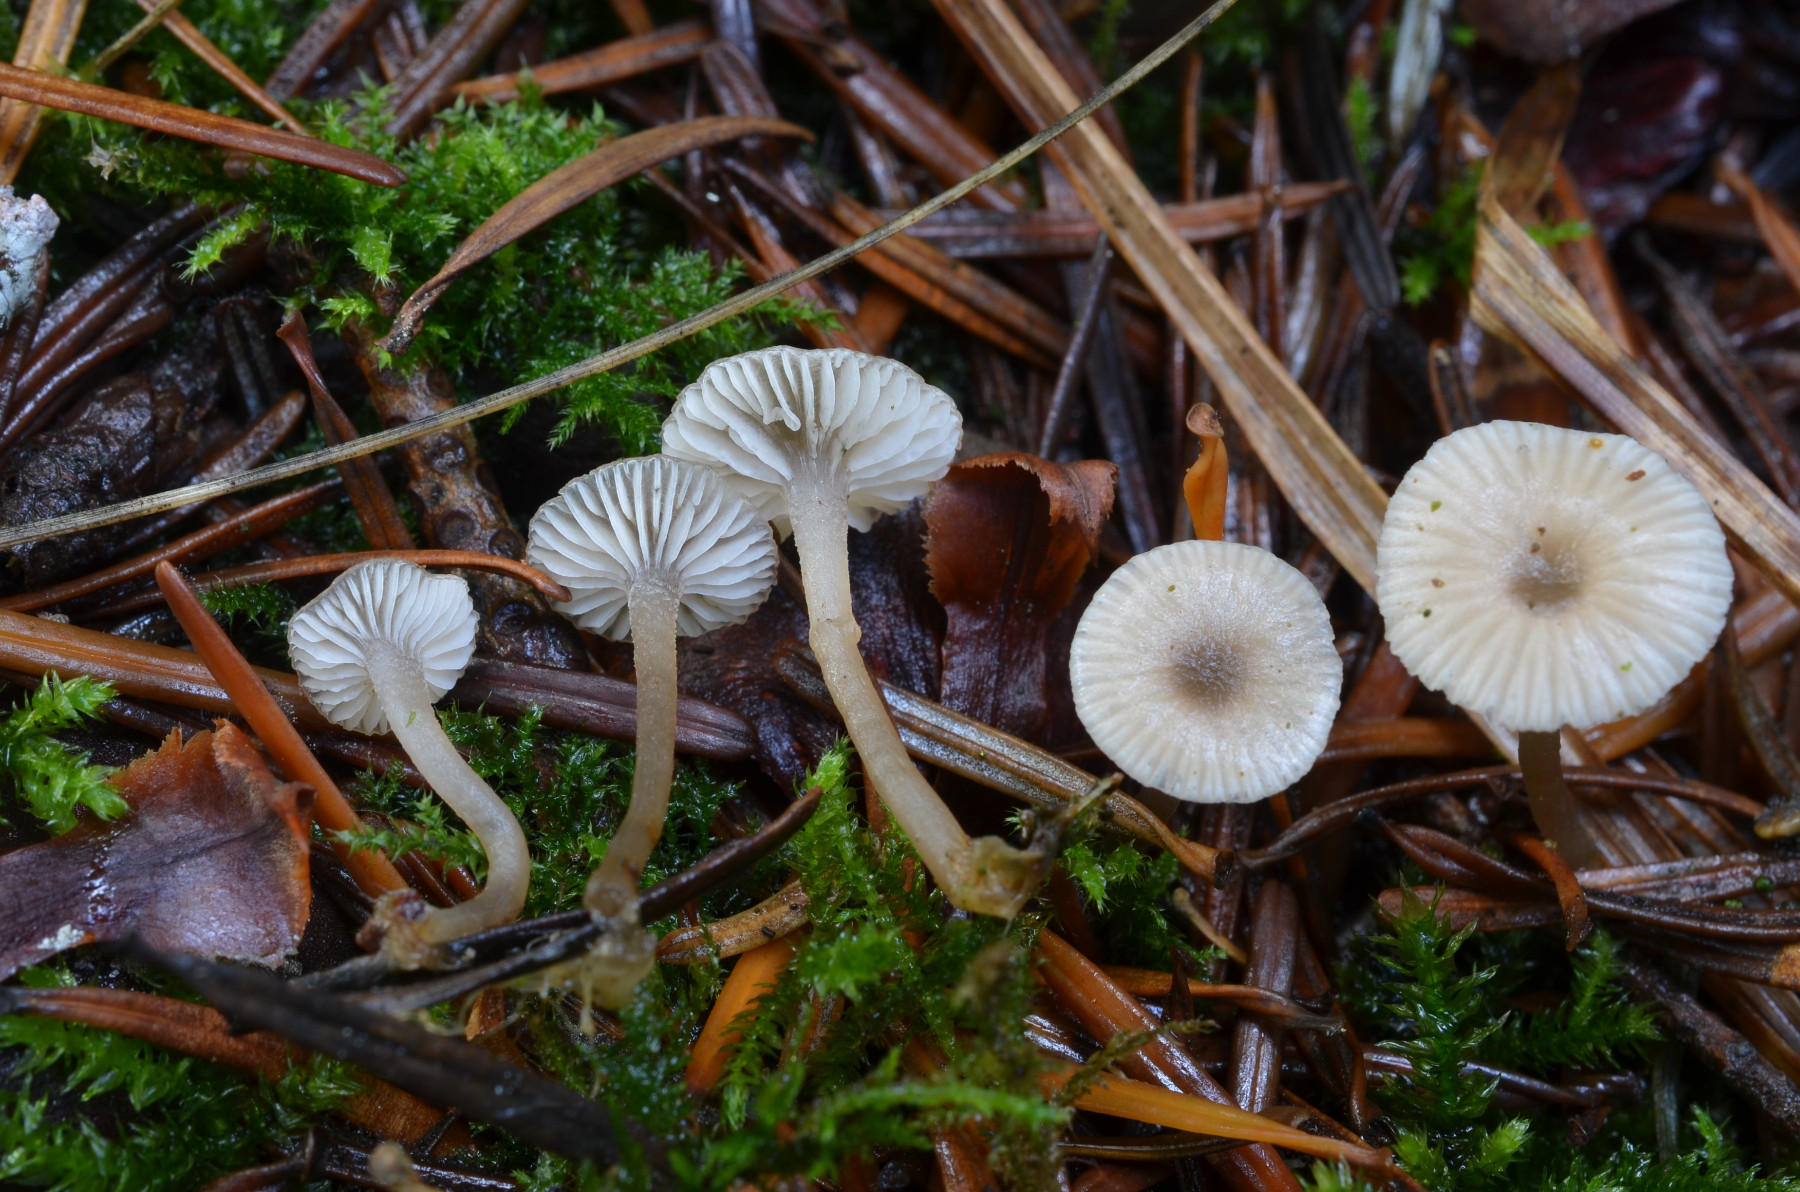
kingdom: Fungi
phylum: Basidiomycota
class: Agaricomycetes
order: Agaricales
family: Lyophyllaceae
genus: Lyophyllum
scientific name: Lyophyllum
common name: gråblad
